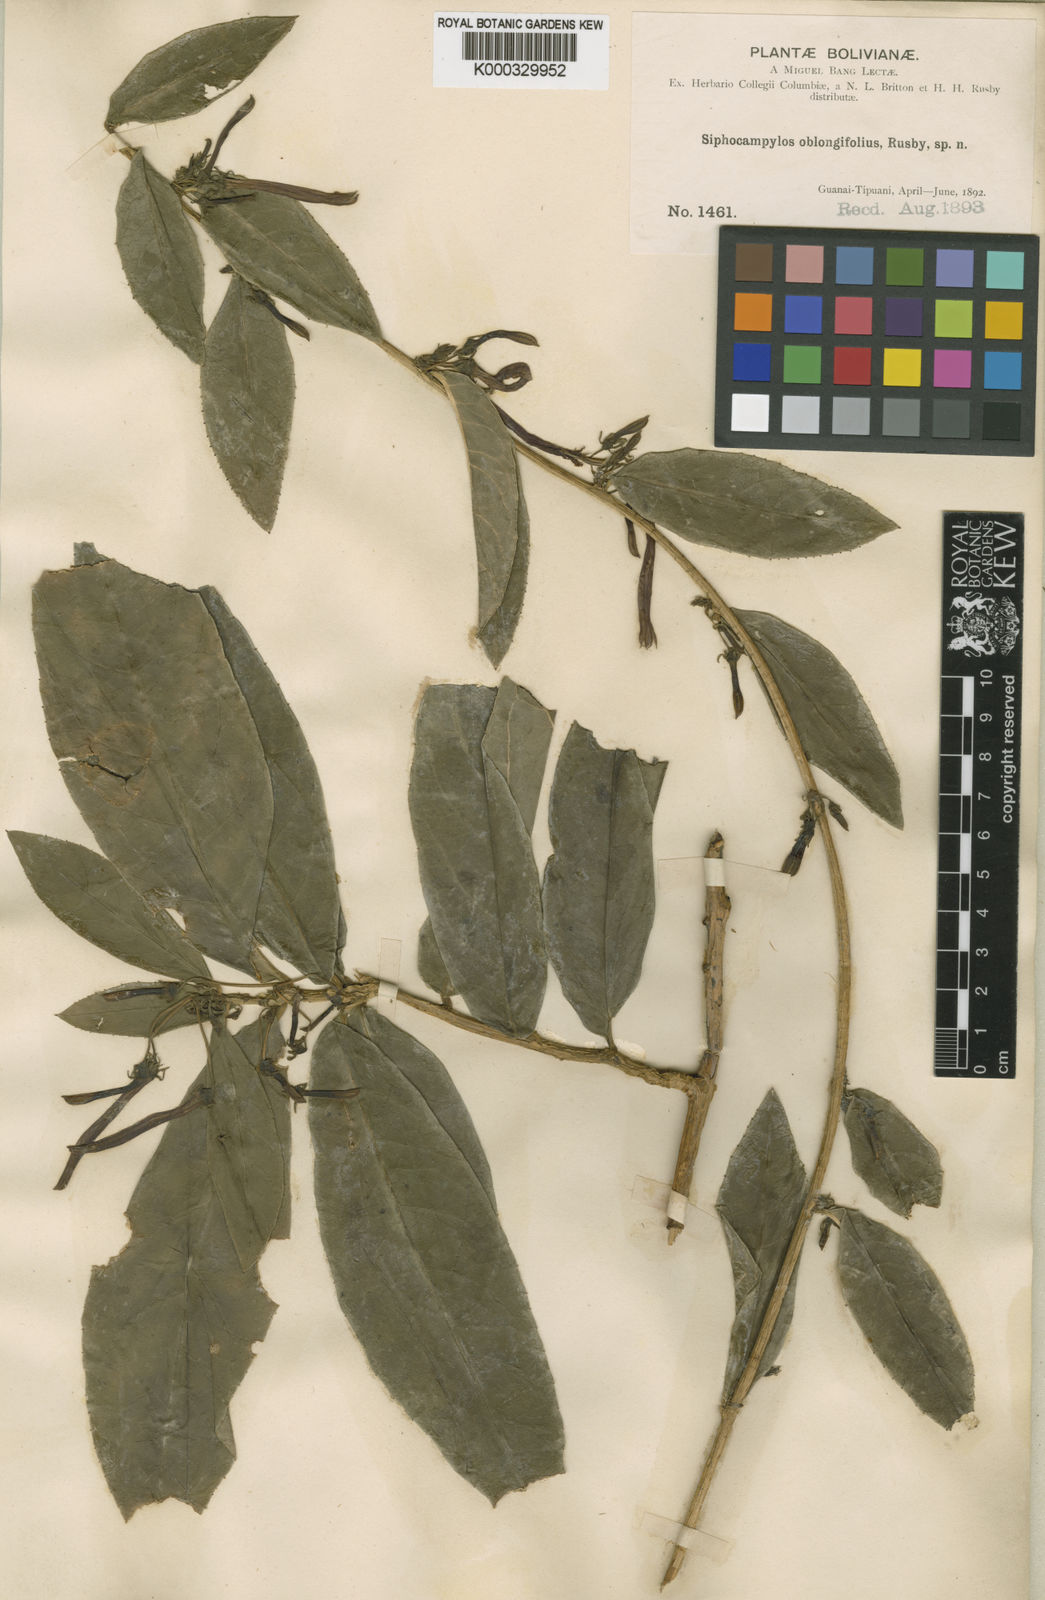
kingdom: Plantae
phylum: Tracheophyta
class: Magnoliopsida
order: Asterales
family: Campanulaceae
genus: Siphocampylus
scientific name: Siphocampylus oblongifolius
